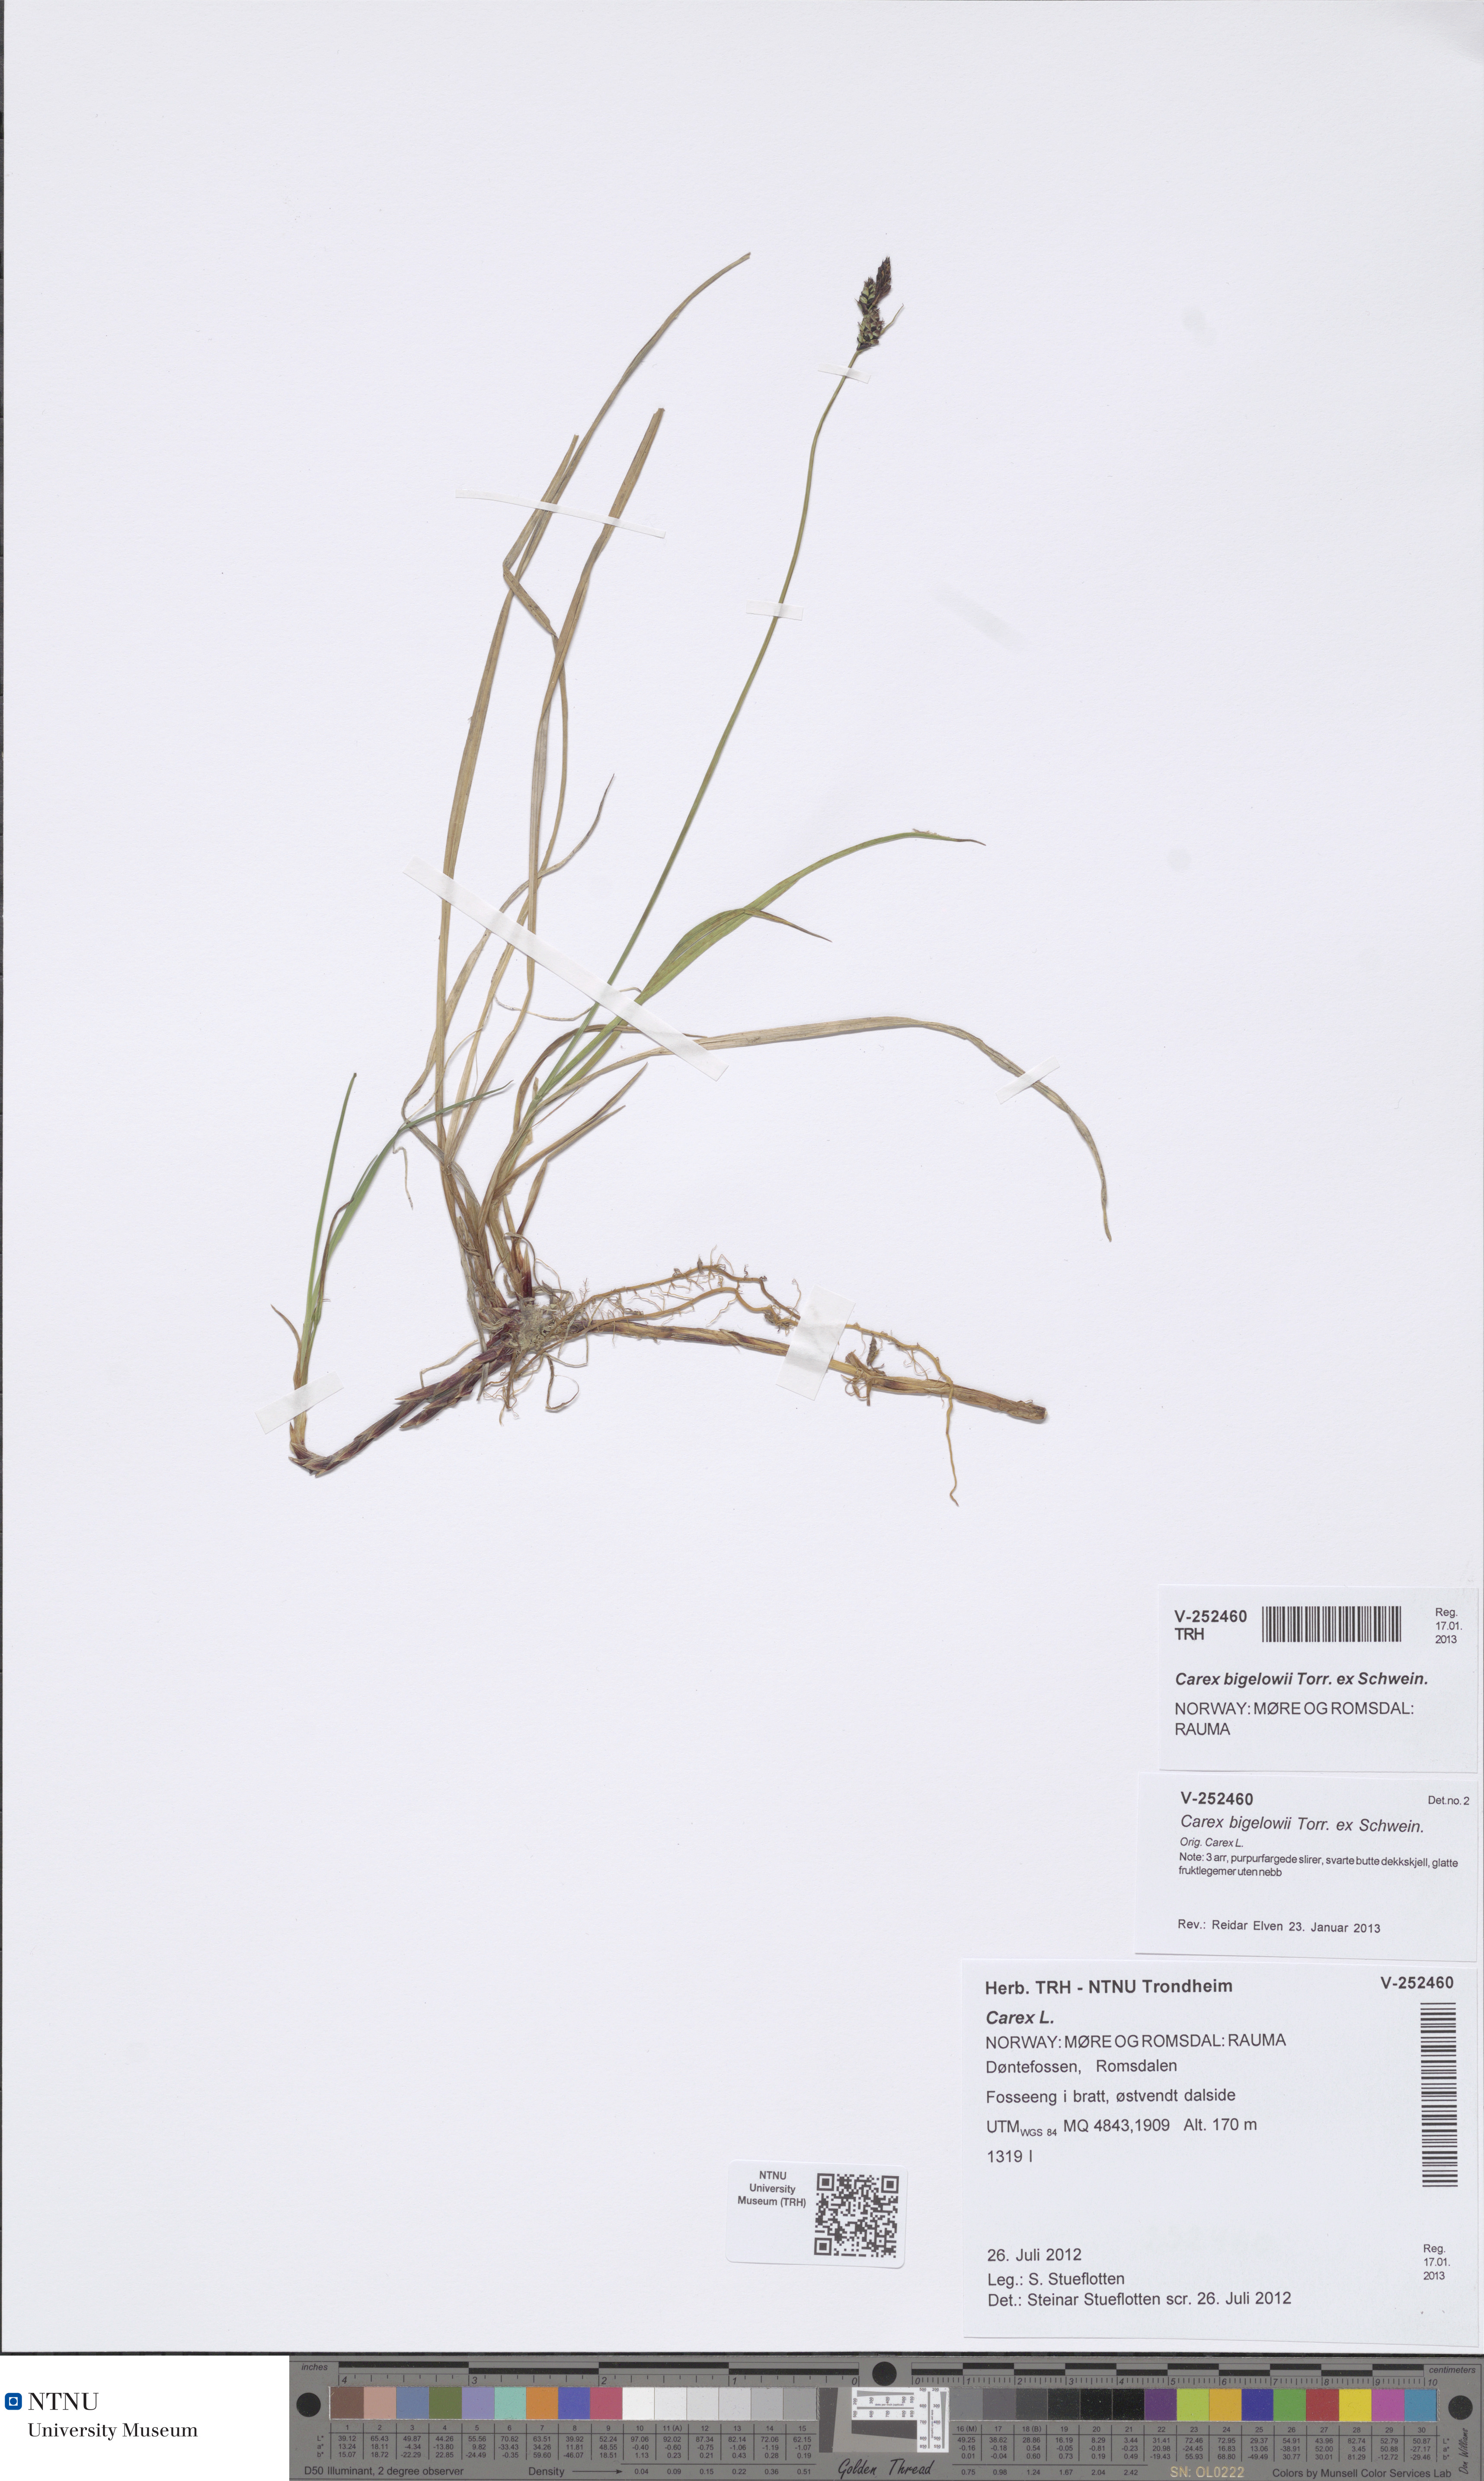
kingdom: Plantae
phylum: Tracheophyta
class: Liliopsida
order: Poales
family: Cyperaceae
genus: Carex
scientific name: Carex bigelowii
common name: Stiff sedge
